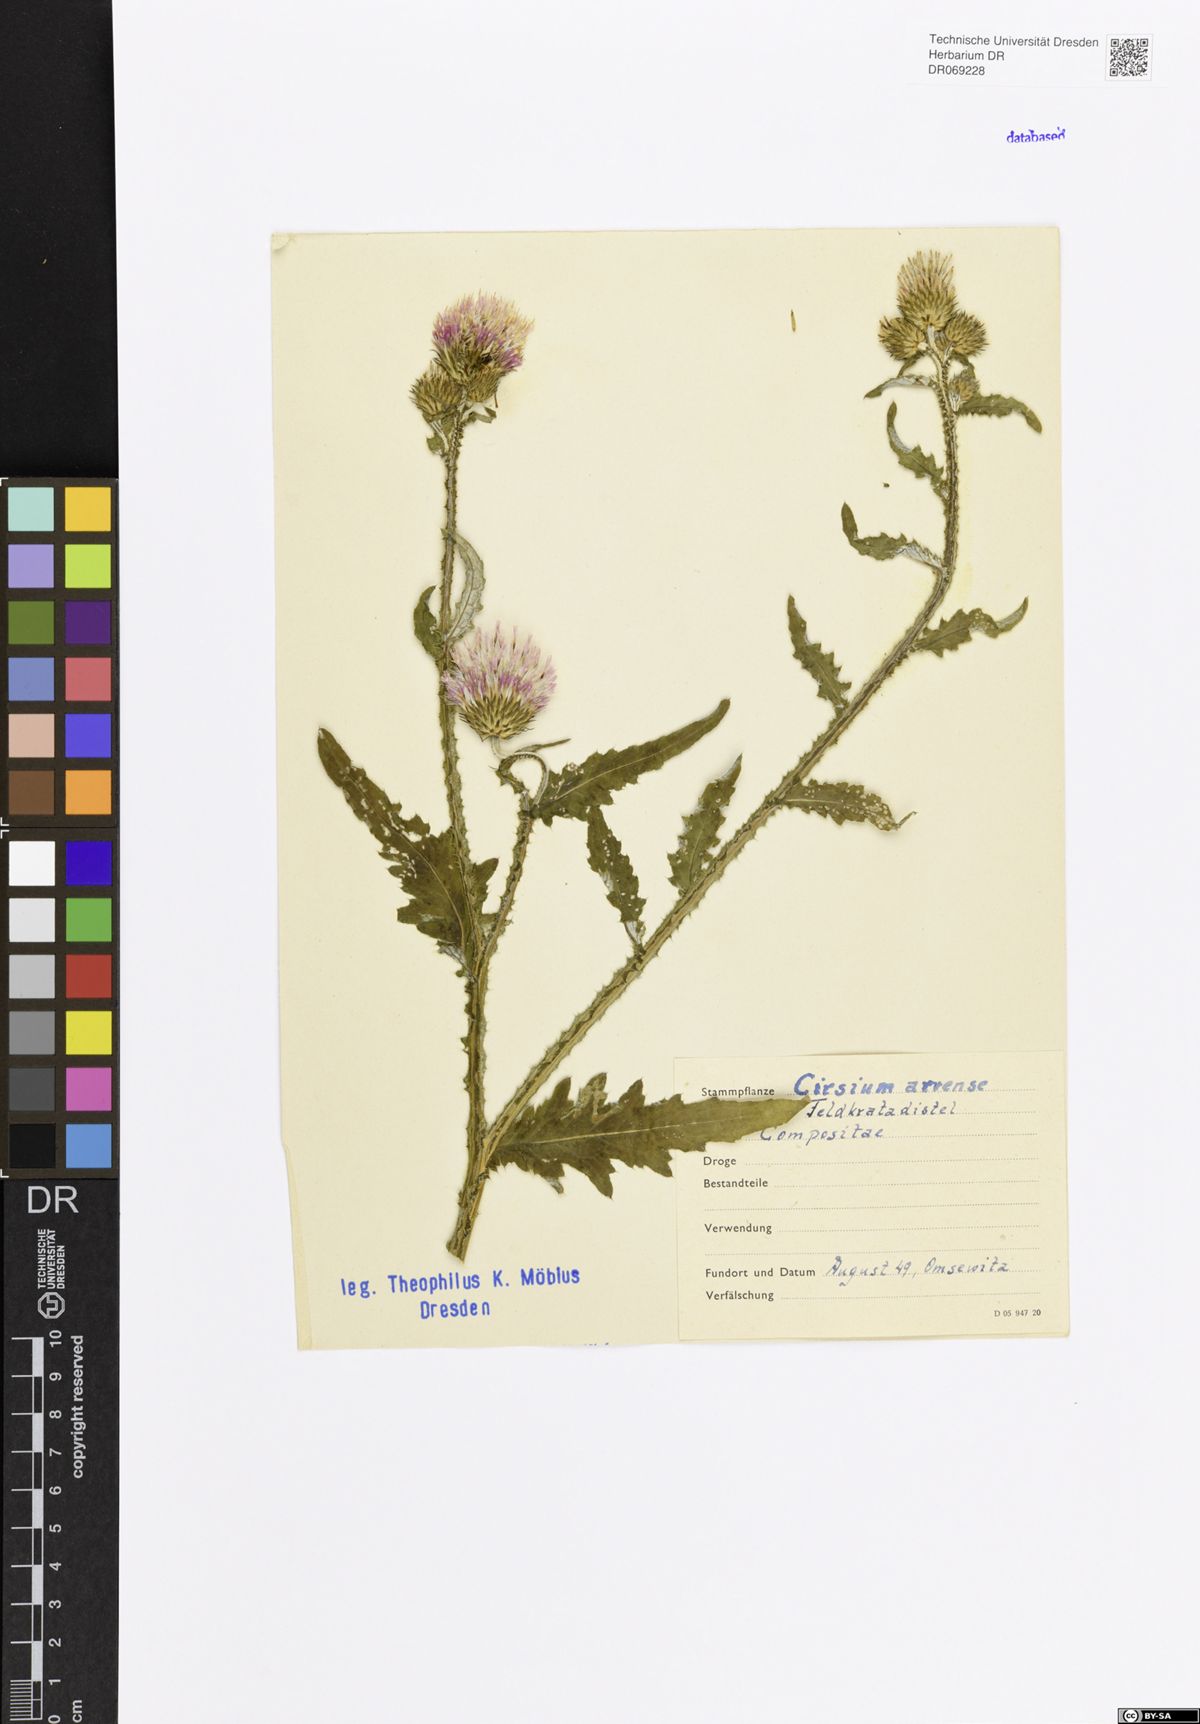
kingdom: Plantae
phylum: Tracheophyta
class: Magnoliopsida
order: Asterales
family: Asteraceae
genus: Cirsium
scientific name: Cirsium arvense
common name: Creeping thistle
